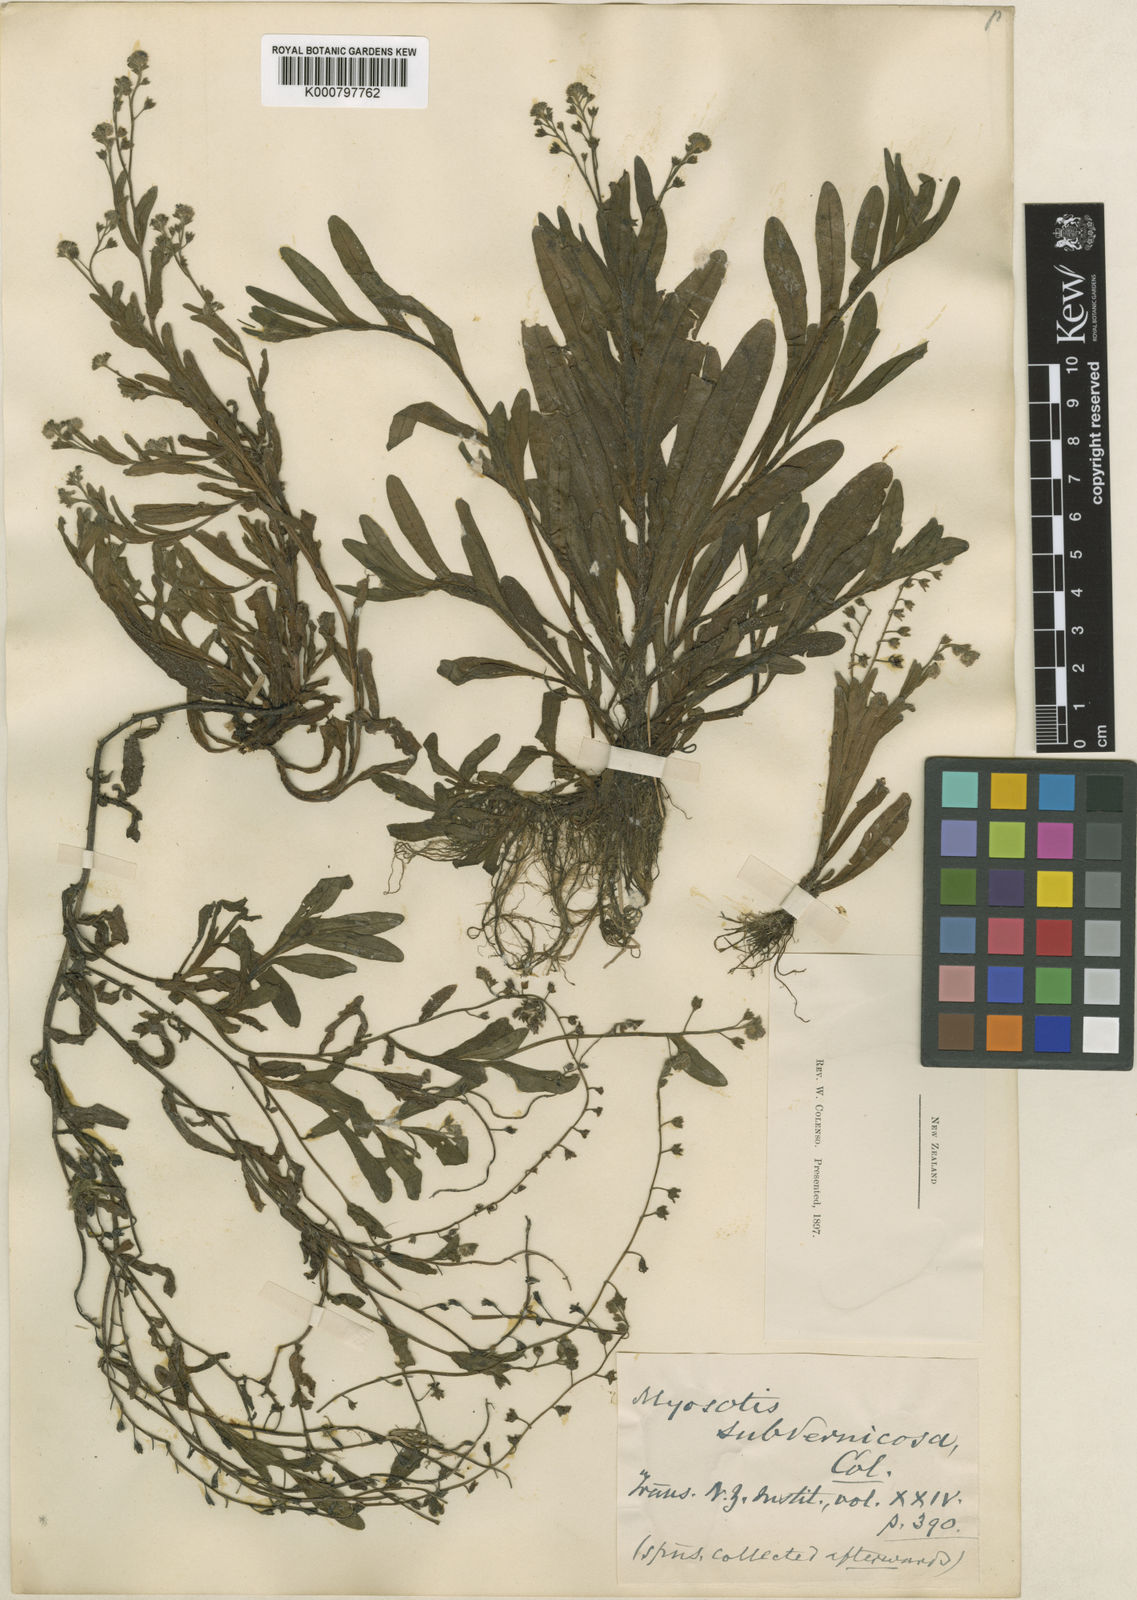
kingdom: Plantae
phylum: Tracheophyta
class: Magnoliopsida
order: Boraginales
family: Boraginaceae
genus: Myosotis
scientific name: Myosotis laxa
